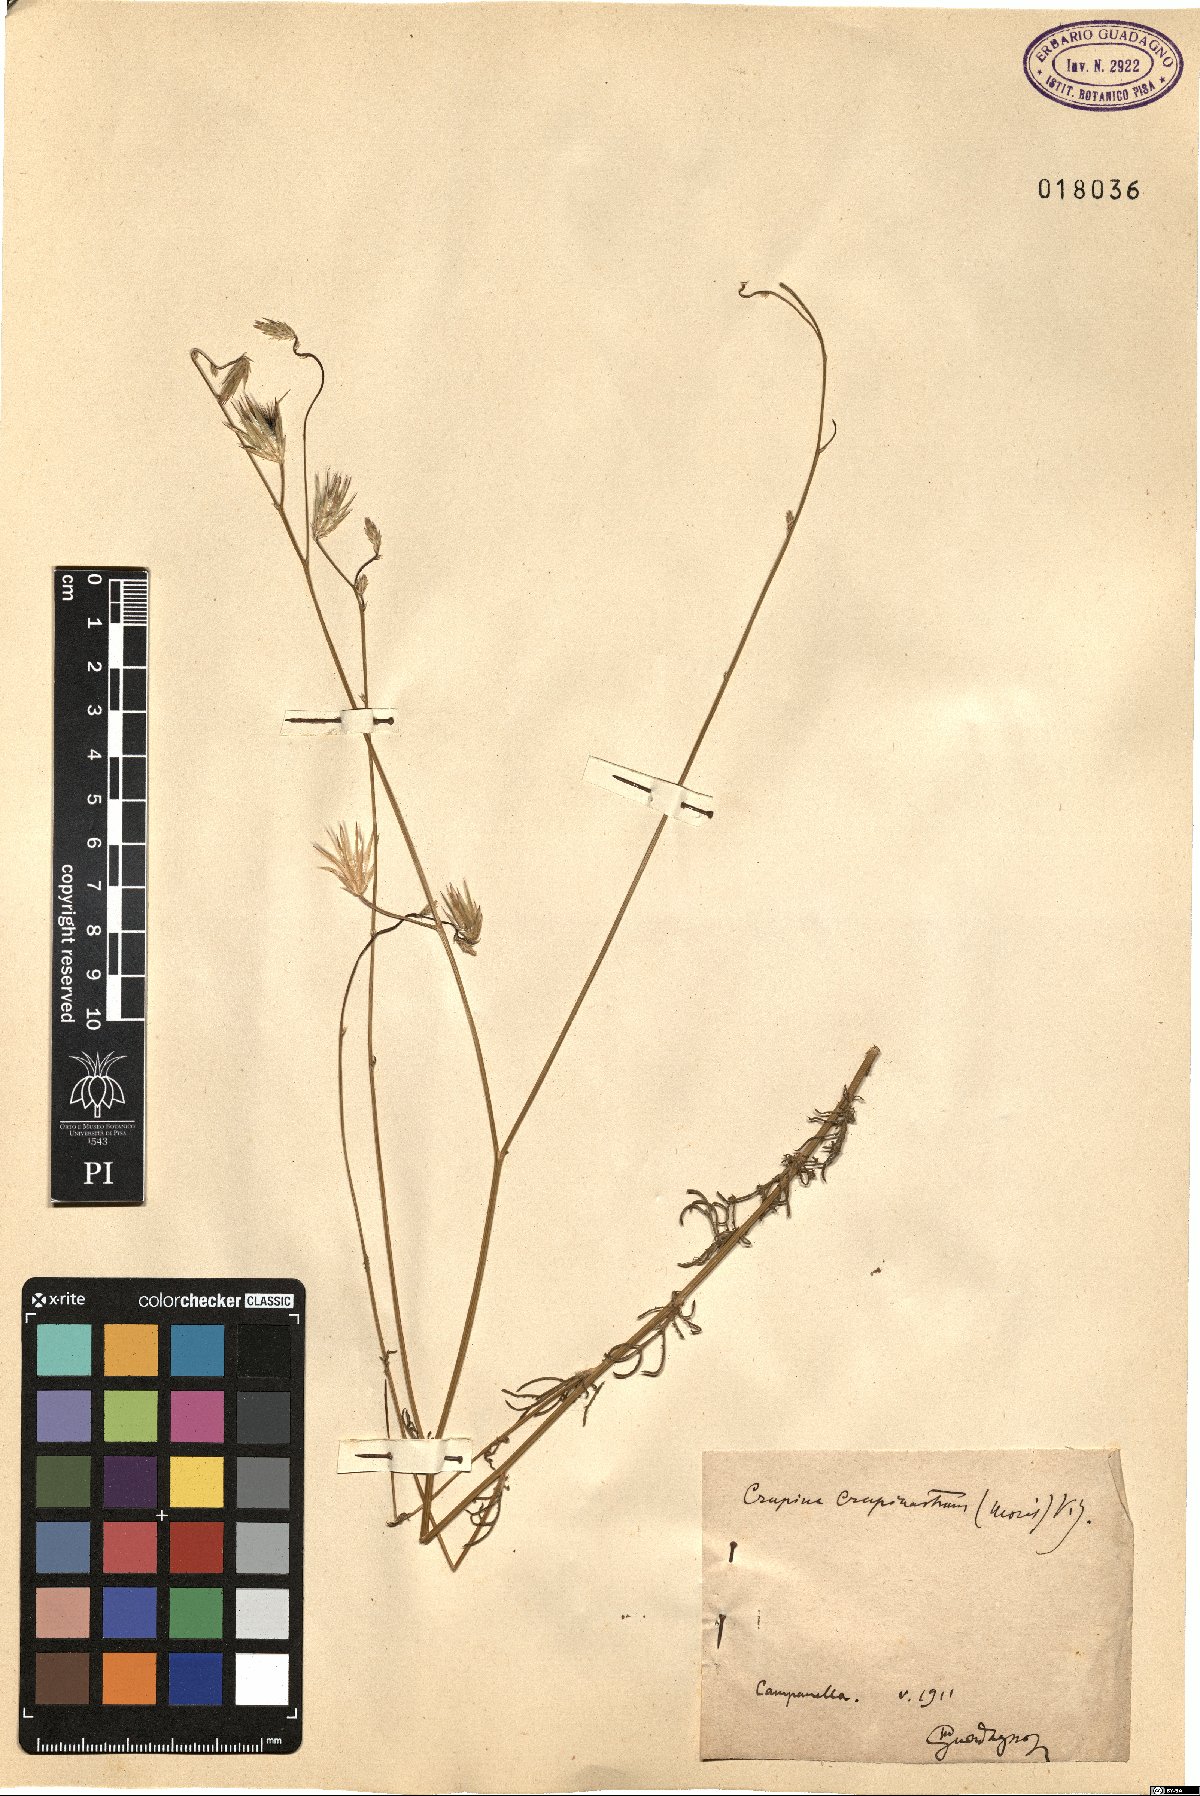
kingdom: Plantae
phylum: Tracheophyta
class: Magnoliopsida
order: Asterales
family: Asteraceae
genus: Crupina
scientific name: Crupina crupinastrum
